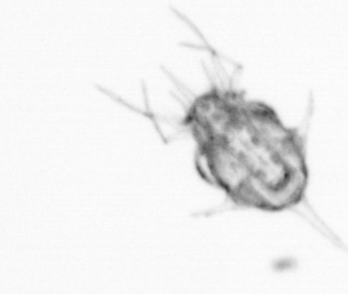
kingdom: Animalia
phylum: Arthropoda
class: Copepoda
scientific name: Copepoda
